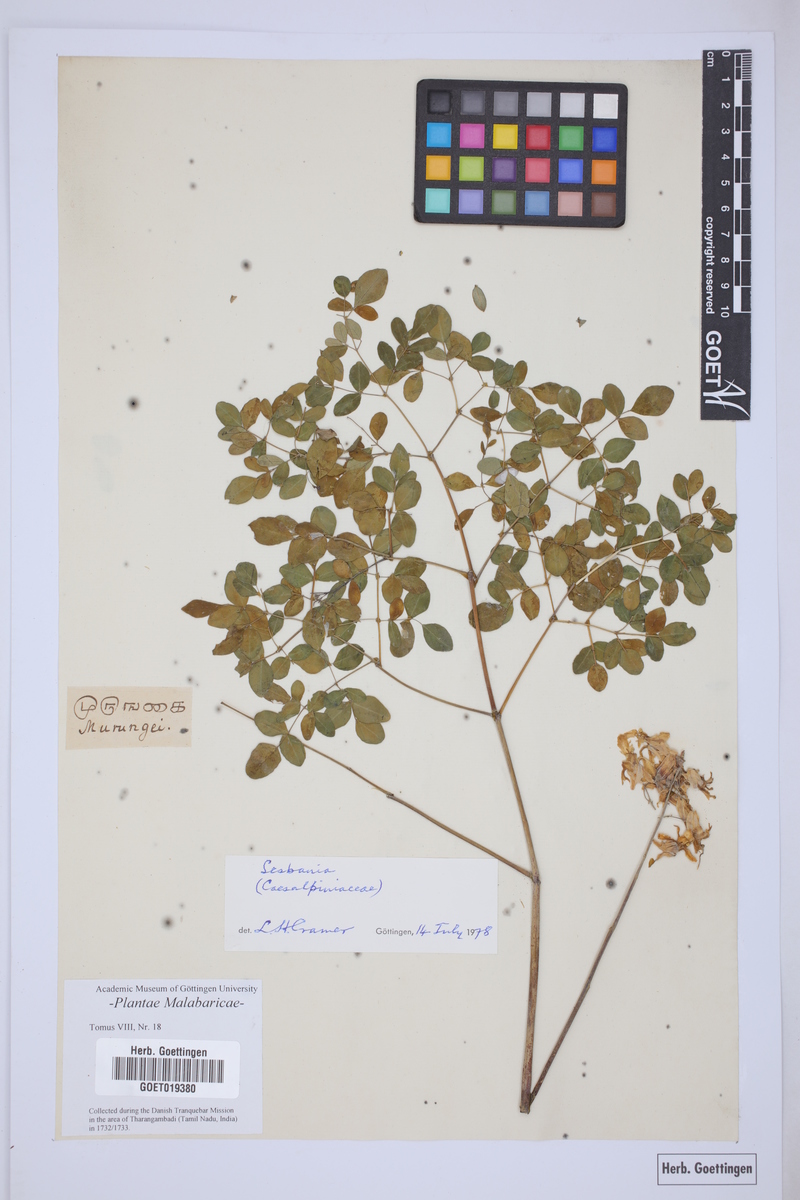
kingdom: Plantae
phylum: Tracheophyta
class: Magnoliopsida
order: Fabales
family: Fabaceae
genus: Sesbania
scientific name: Sesbania
